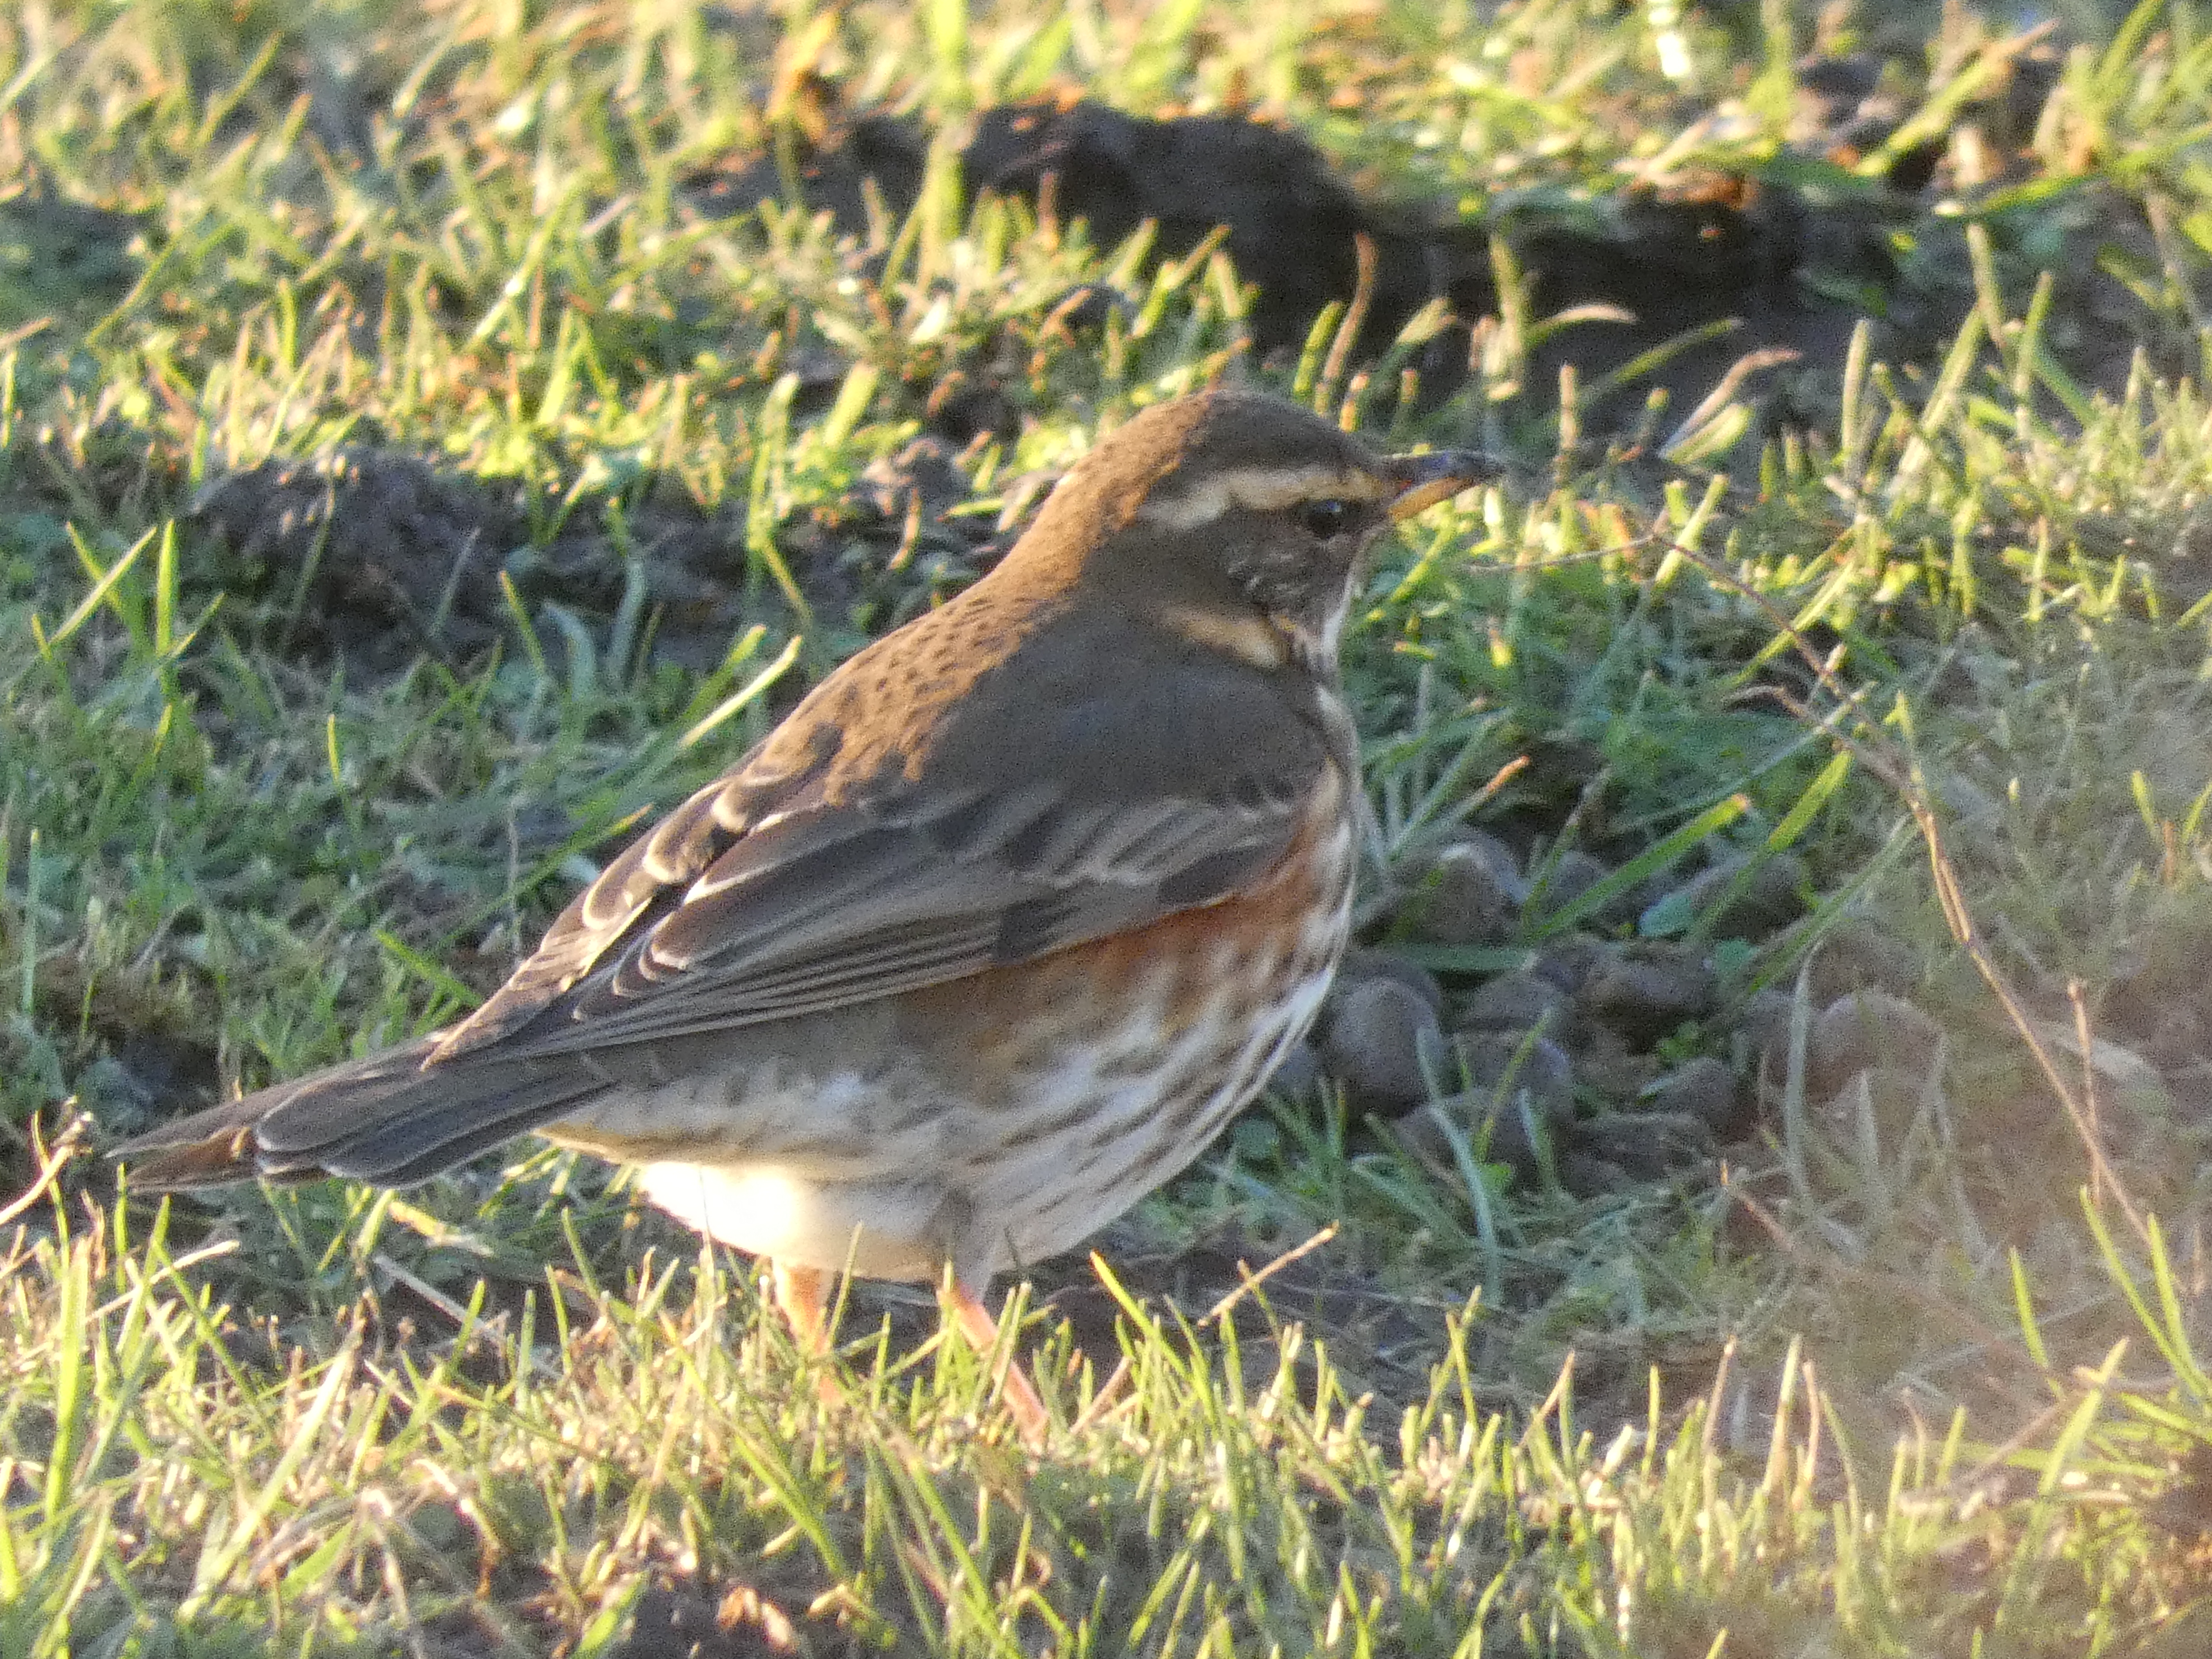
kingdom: Animalia
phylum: Chordata
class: Aves
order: Passeriformes
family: Turdidae
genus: Turdus
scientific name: Turdus iliacus
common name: Vindrossel
